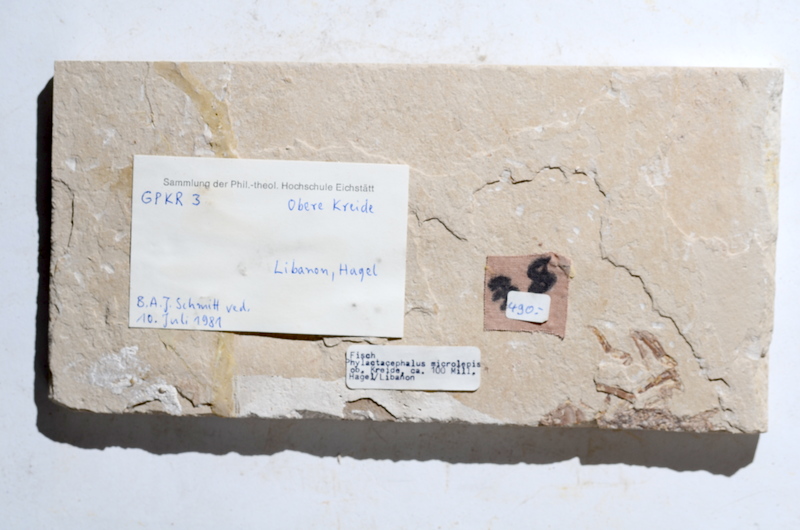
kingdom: Animalia
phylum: Chordata
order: Aulopiformes
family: Halecidae
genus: Phylactocephalus
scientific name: Phylactocephalus microlepis
